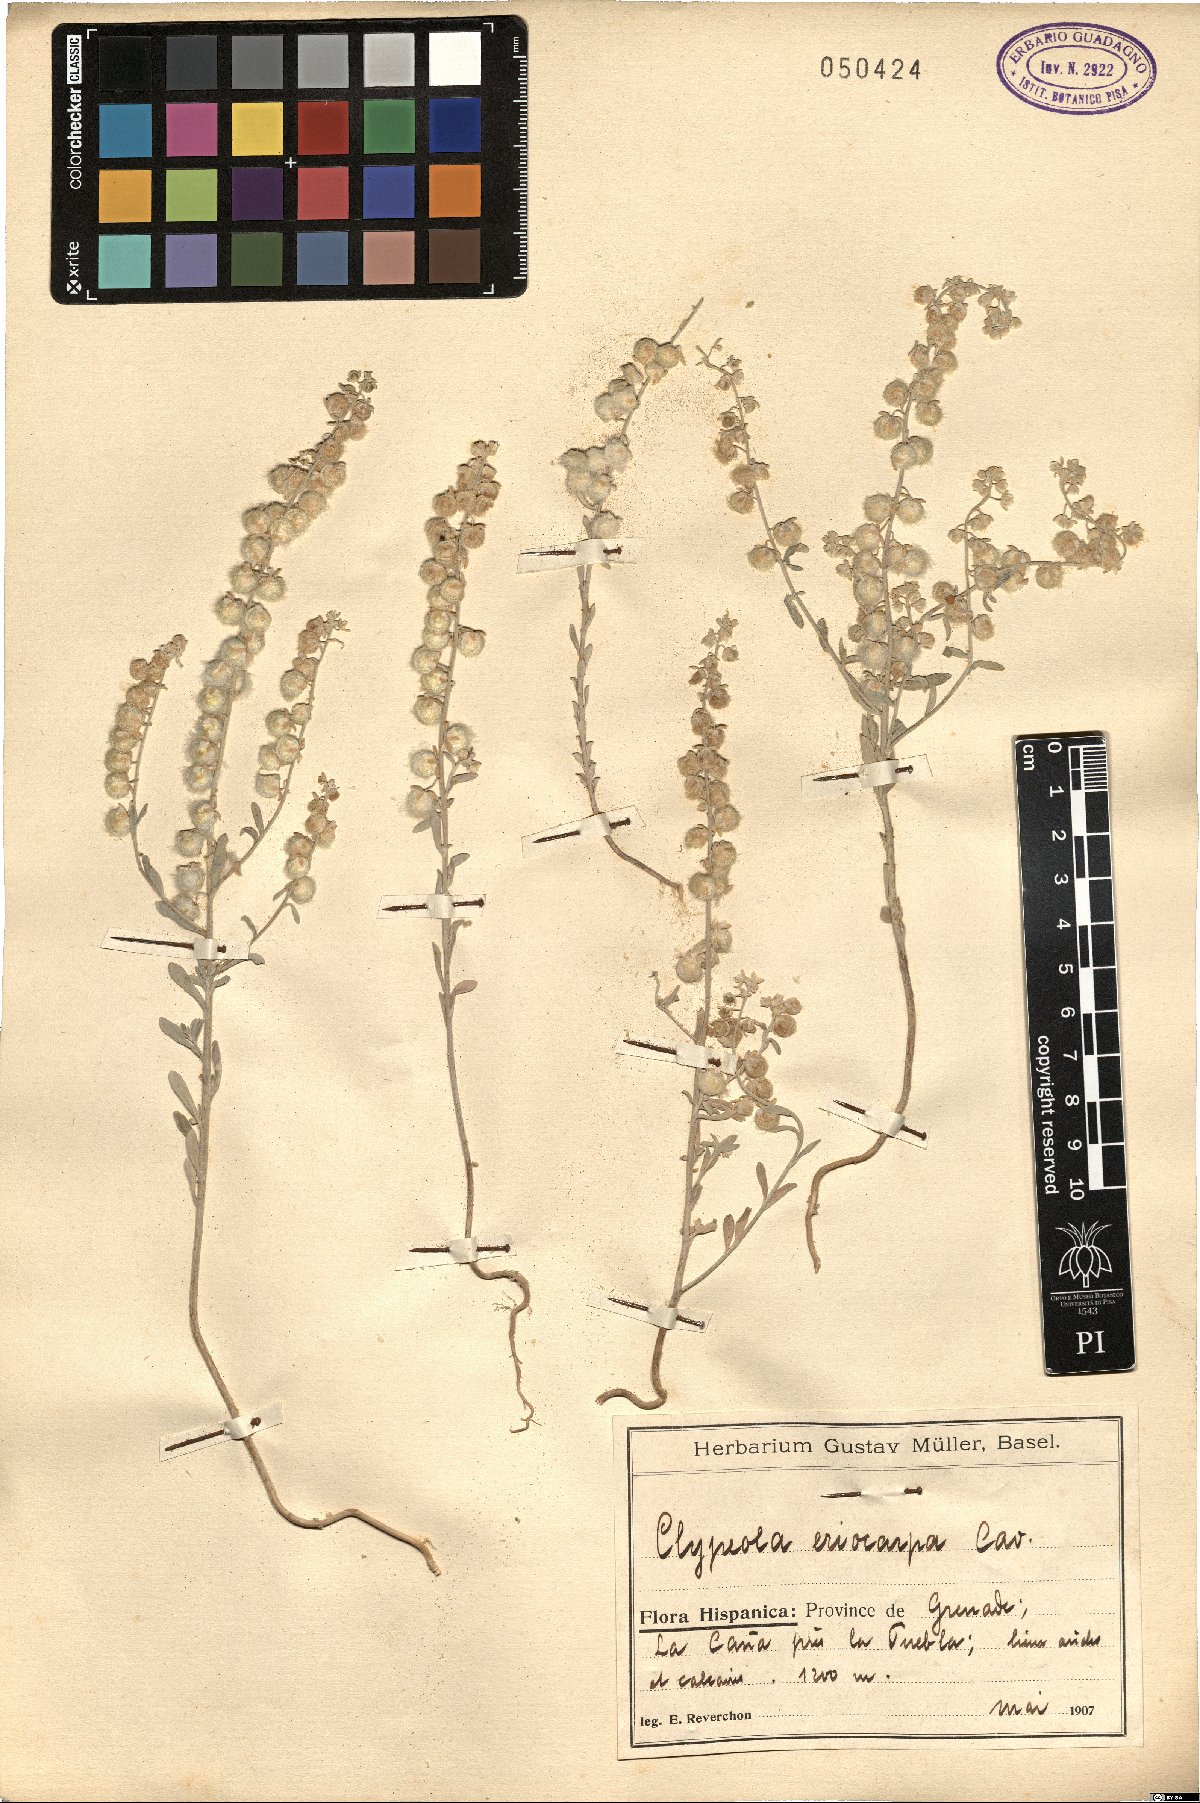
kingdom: Plantae
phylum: Tracheophyta
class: Magnoliopsida
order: Brassicales
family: Brassicaceae
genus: Clypeola
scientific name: Clypeola eriocarpa
